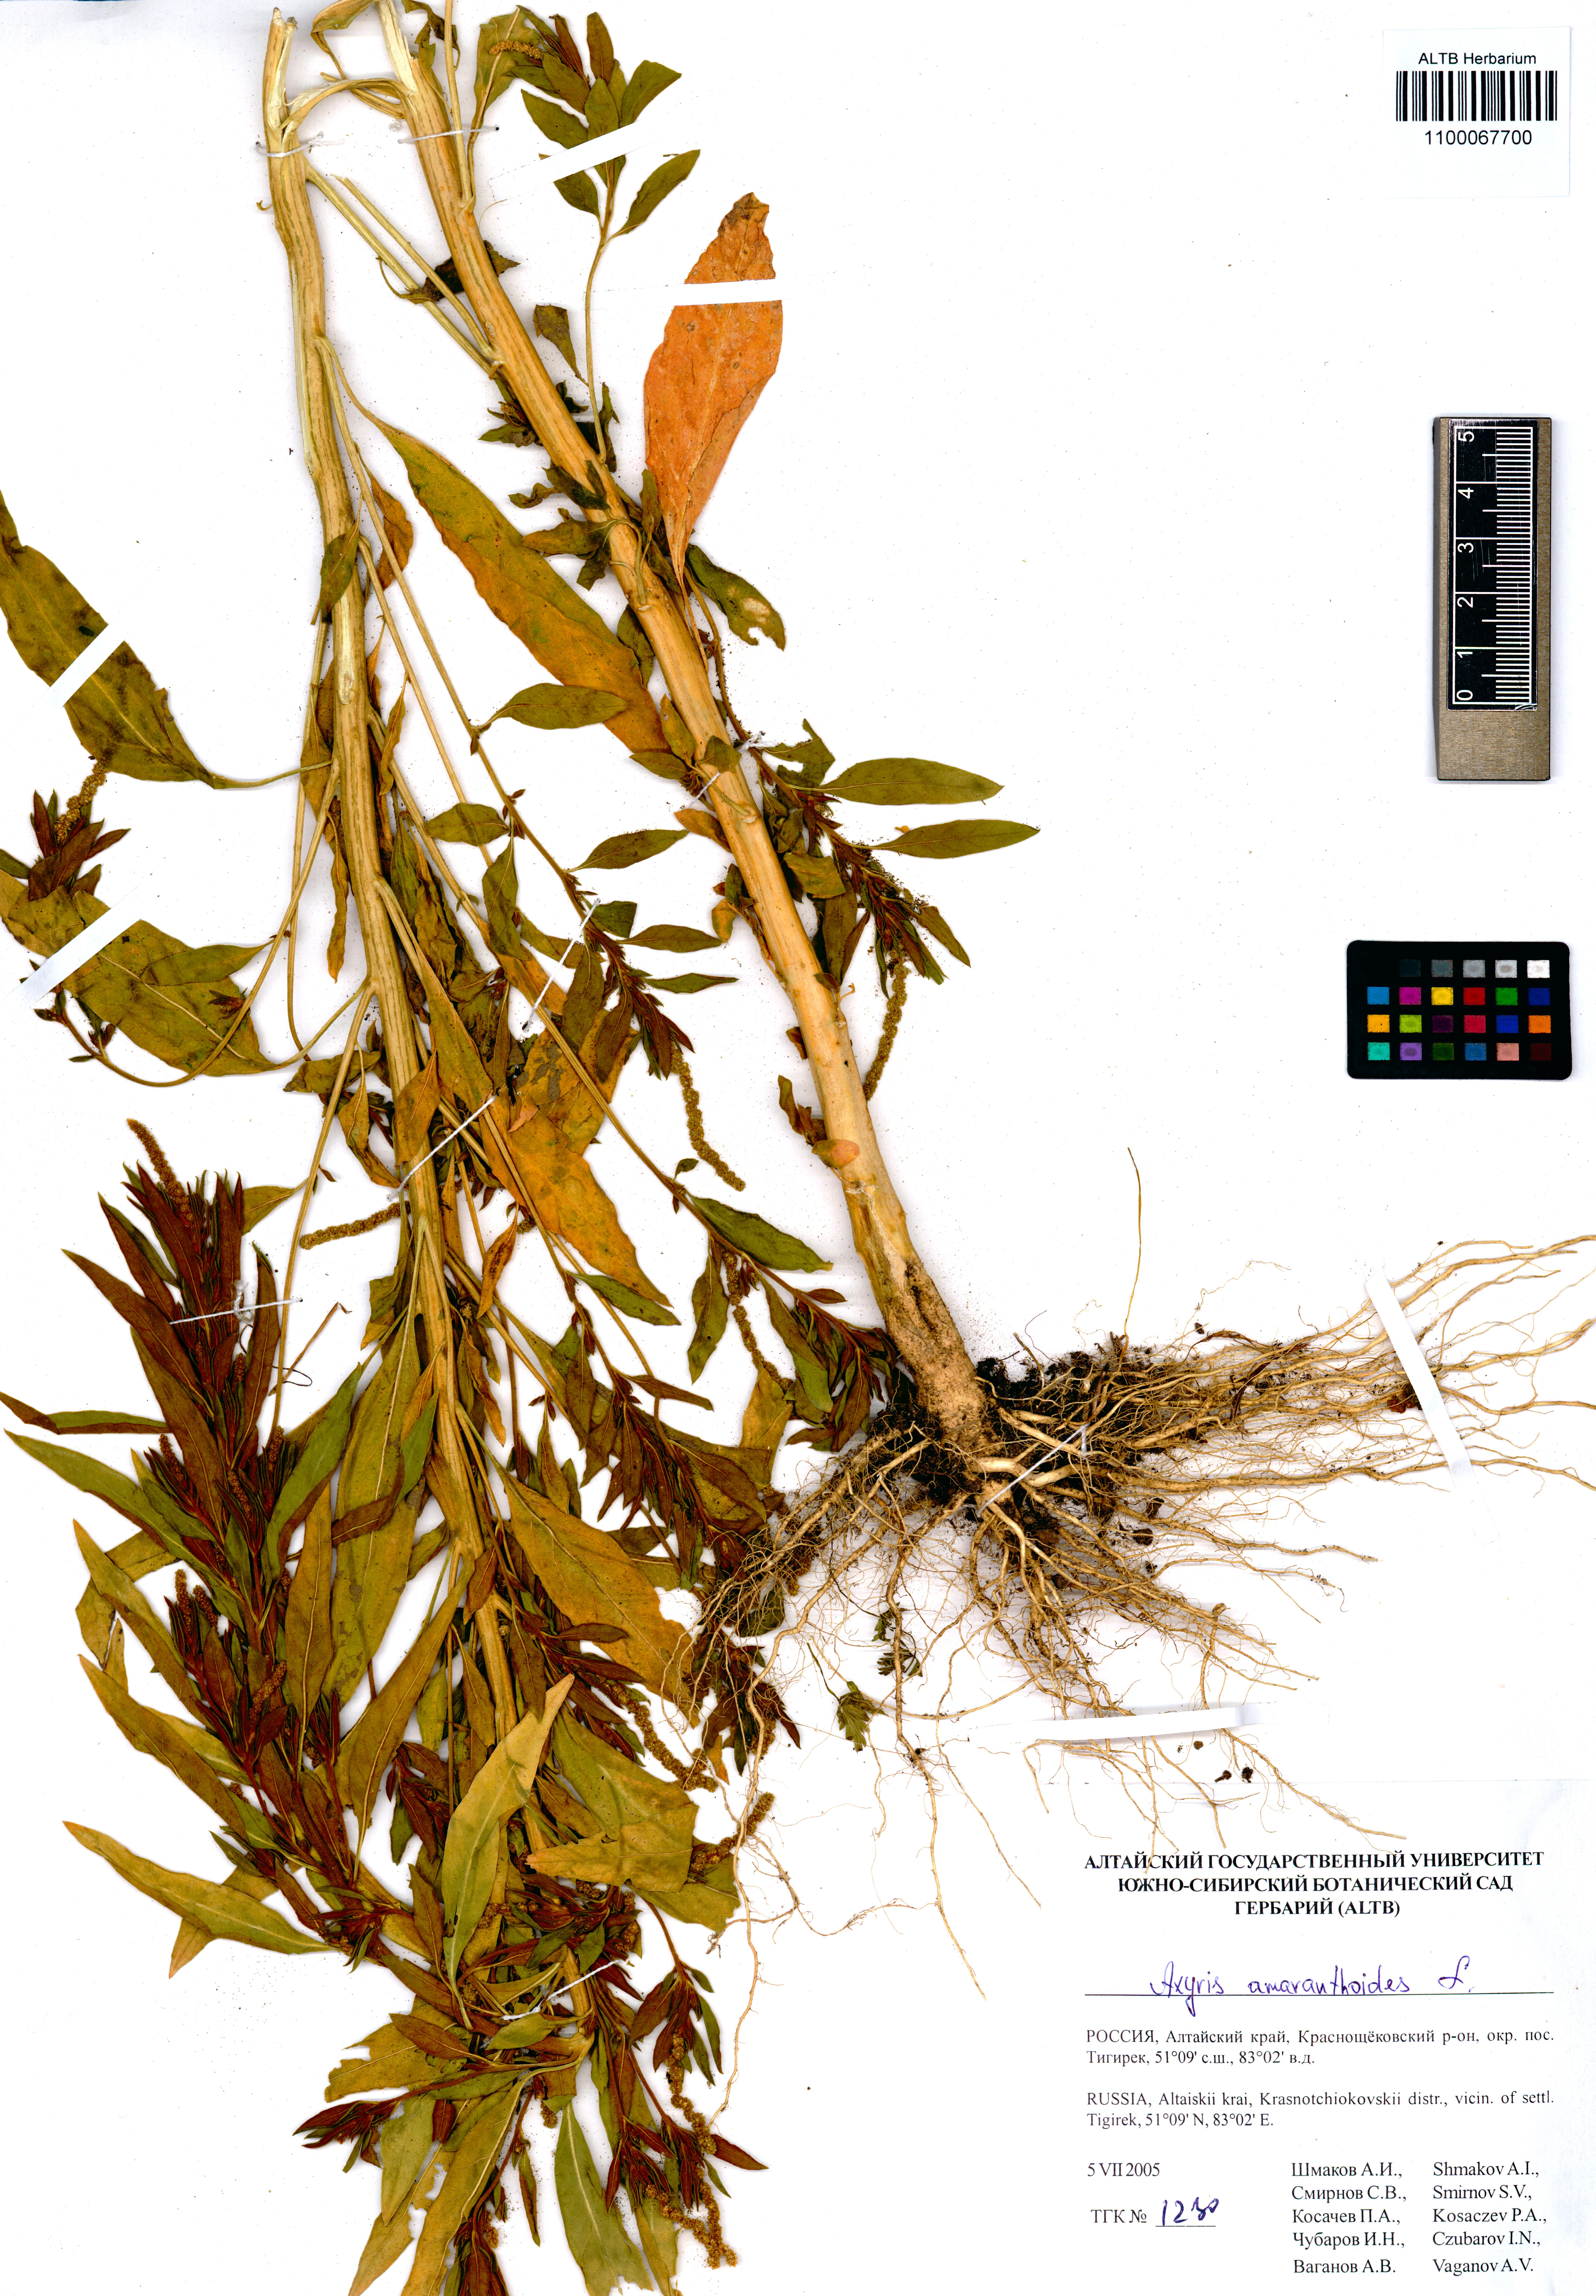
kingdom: Plantae
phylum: Tracheophyta
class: Magnoliopsida
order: Caryophyllales
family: Amaranthaceae
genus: Axyris
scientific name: Axyris amaranthoides
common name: Russian pigweed
